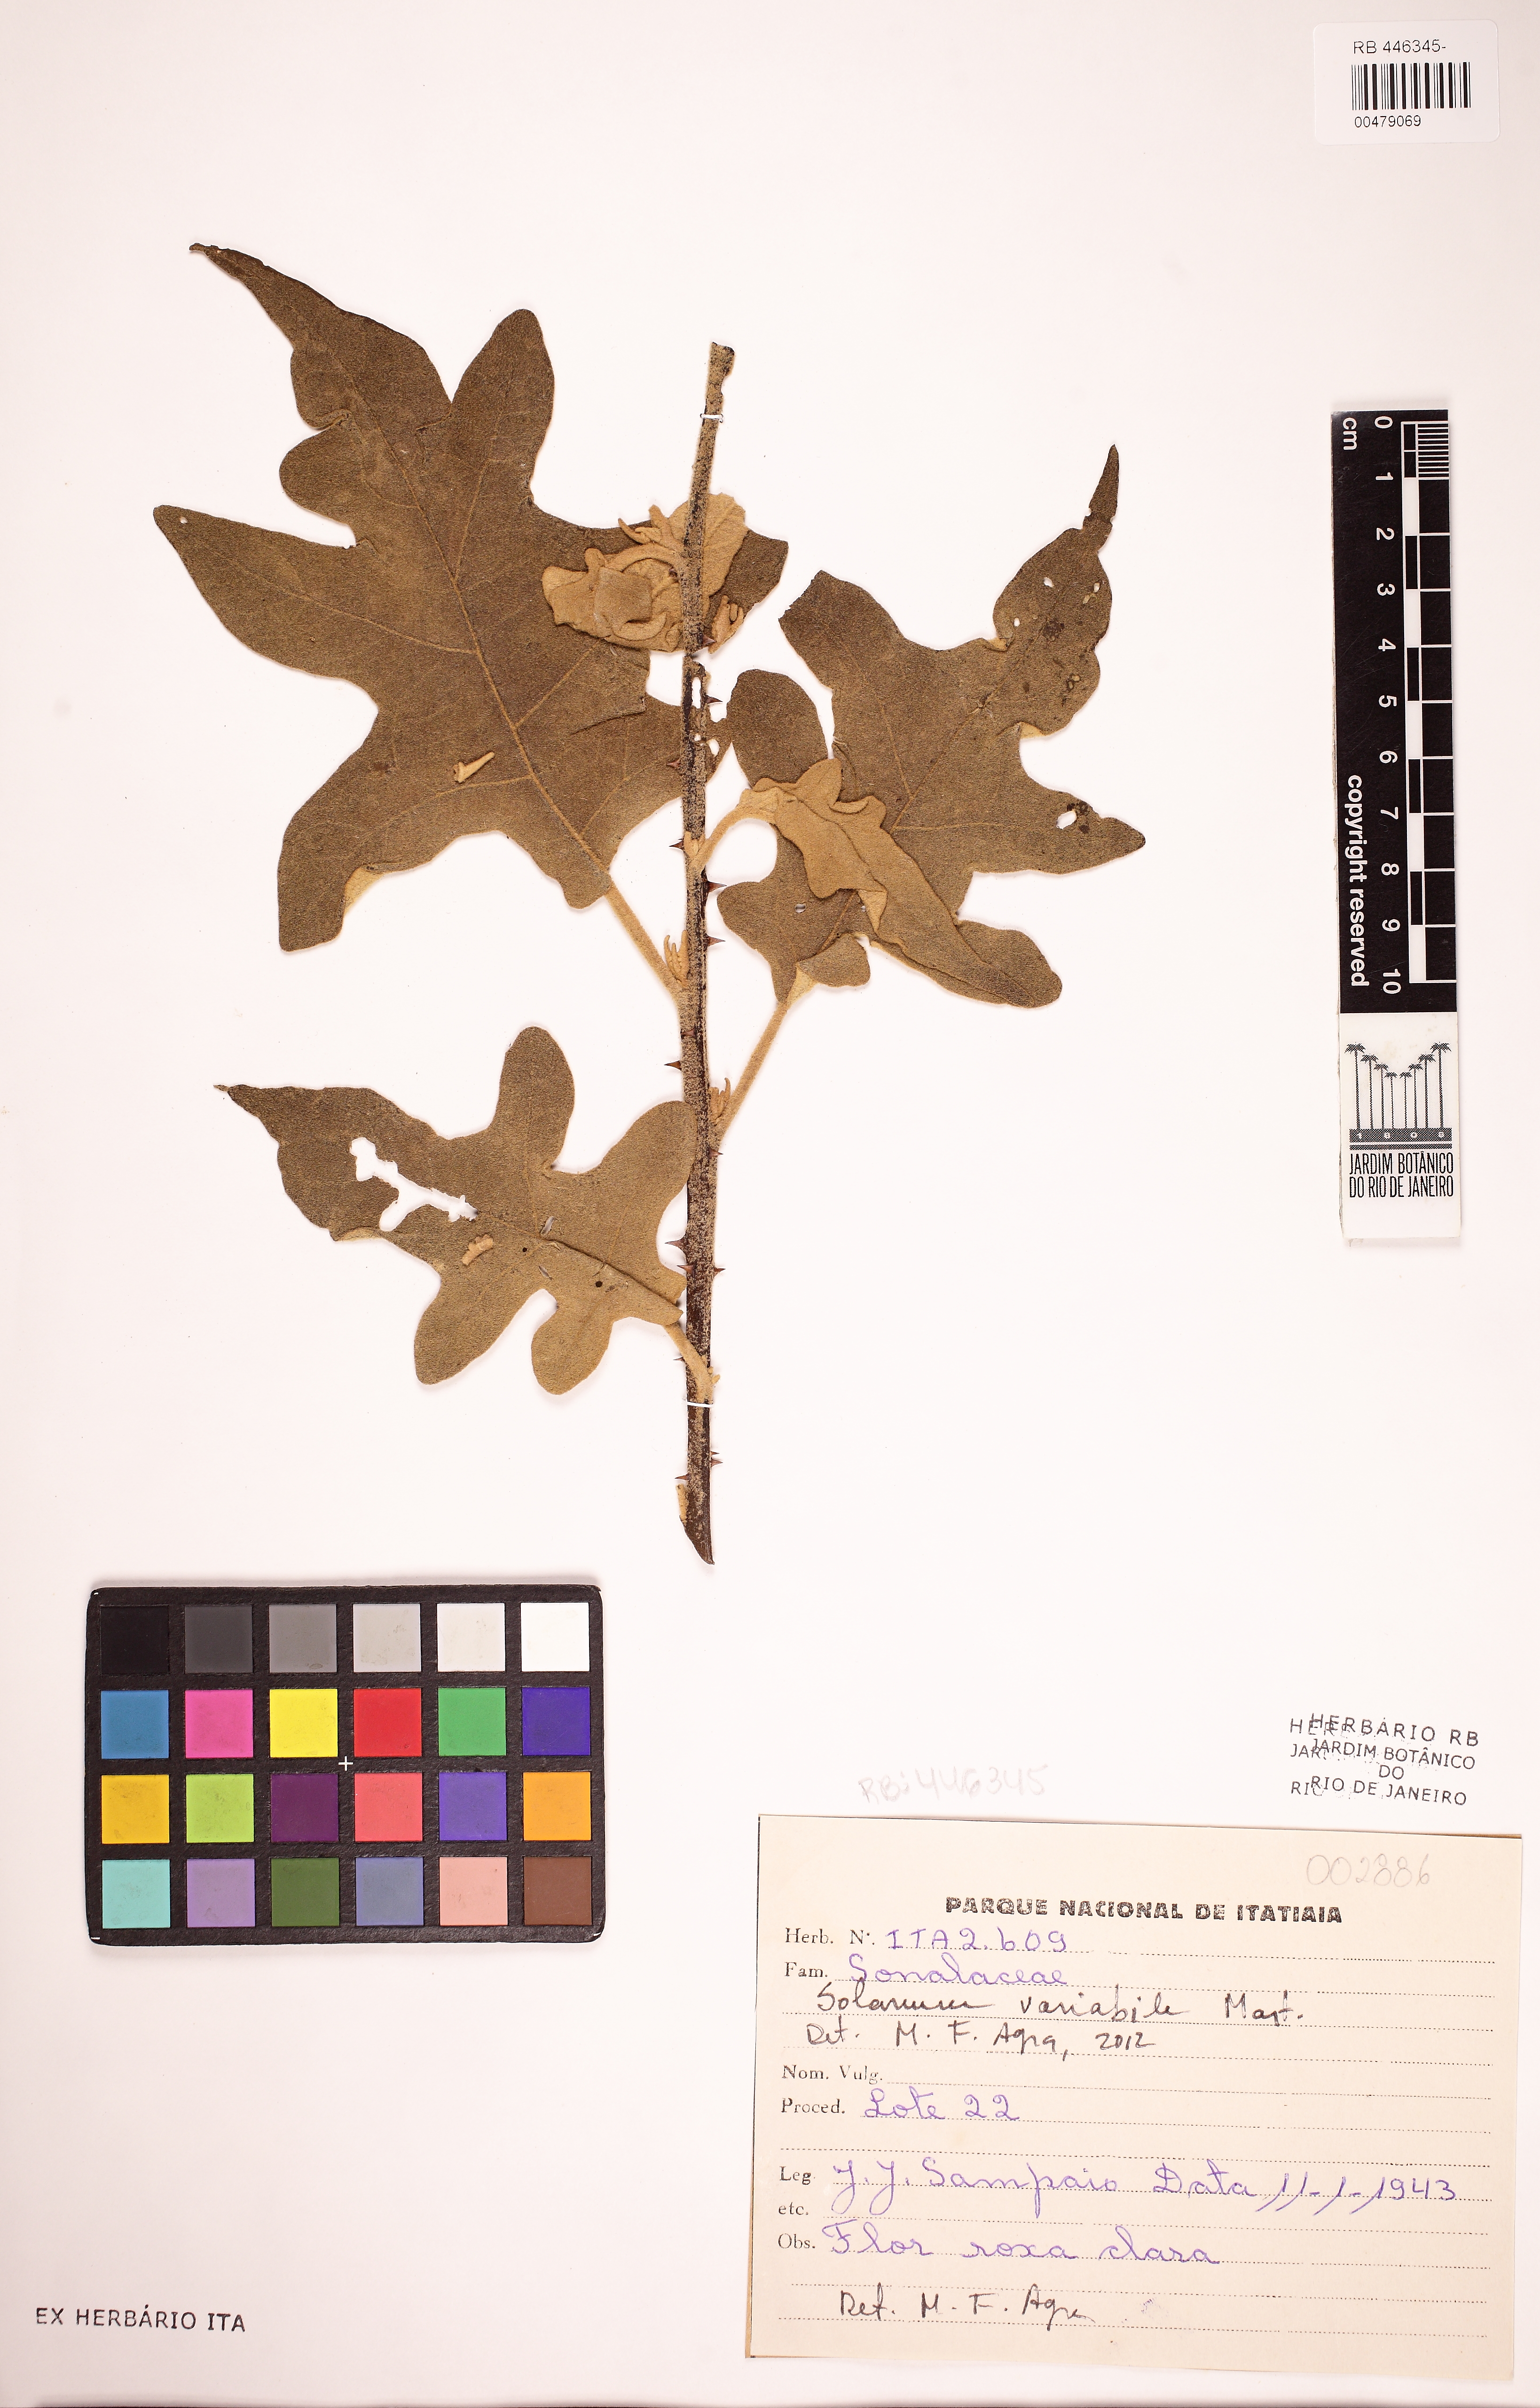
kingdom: Plantae
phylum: Tracheophyta
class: Magnoliopsida
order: Solanales
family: Solanaceae
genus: Solanum
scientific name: Solanum variabile
